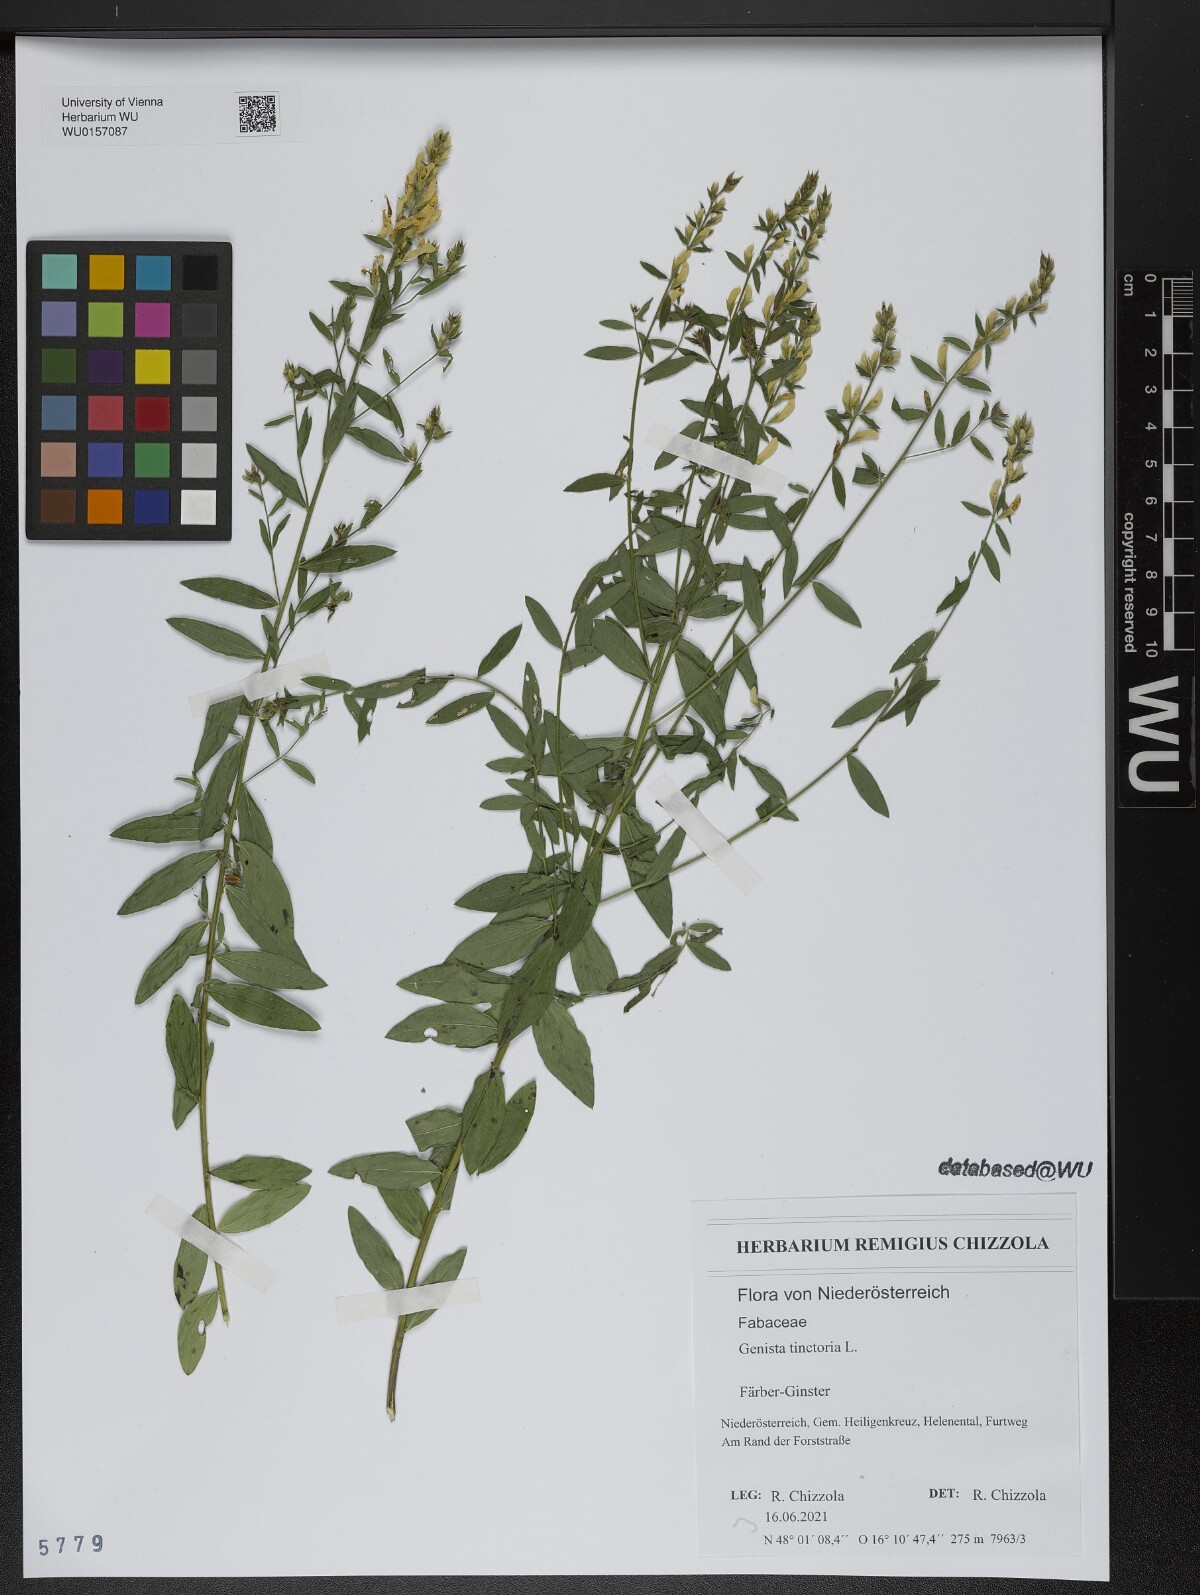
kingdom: Plantae
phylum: Tracheophyta
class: Magnoliopsida
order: Fabales
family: Fabaceae
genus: Genista
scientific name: Genista tinctoria
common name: Dyer's greenweed
